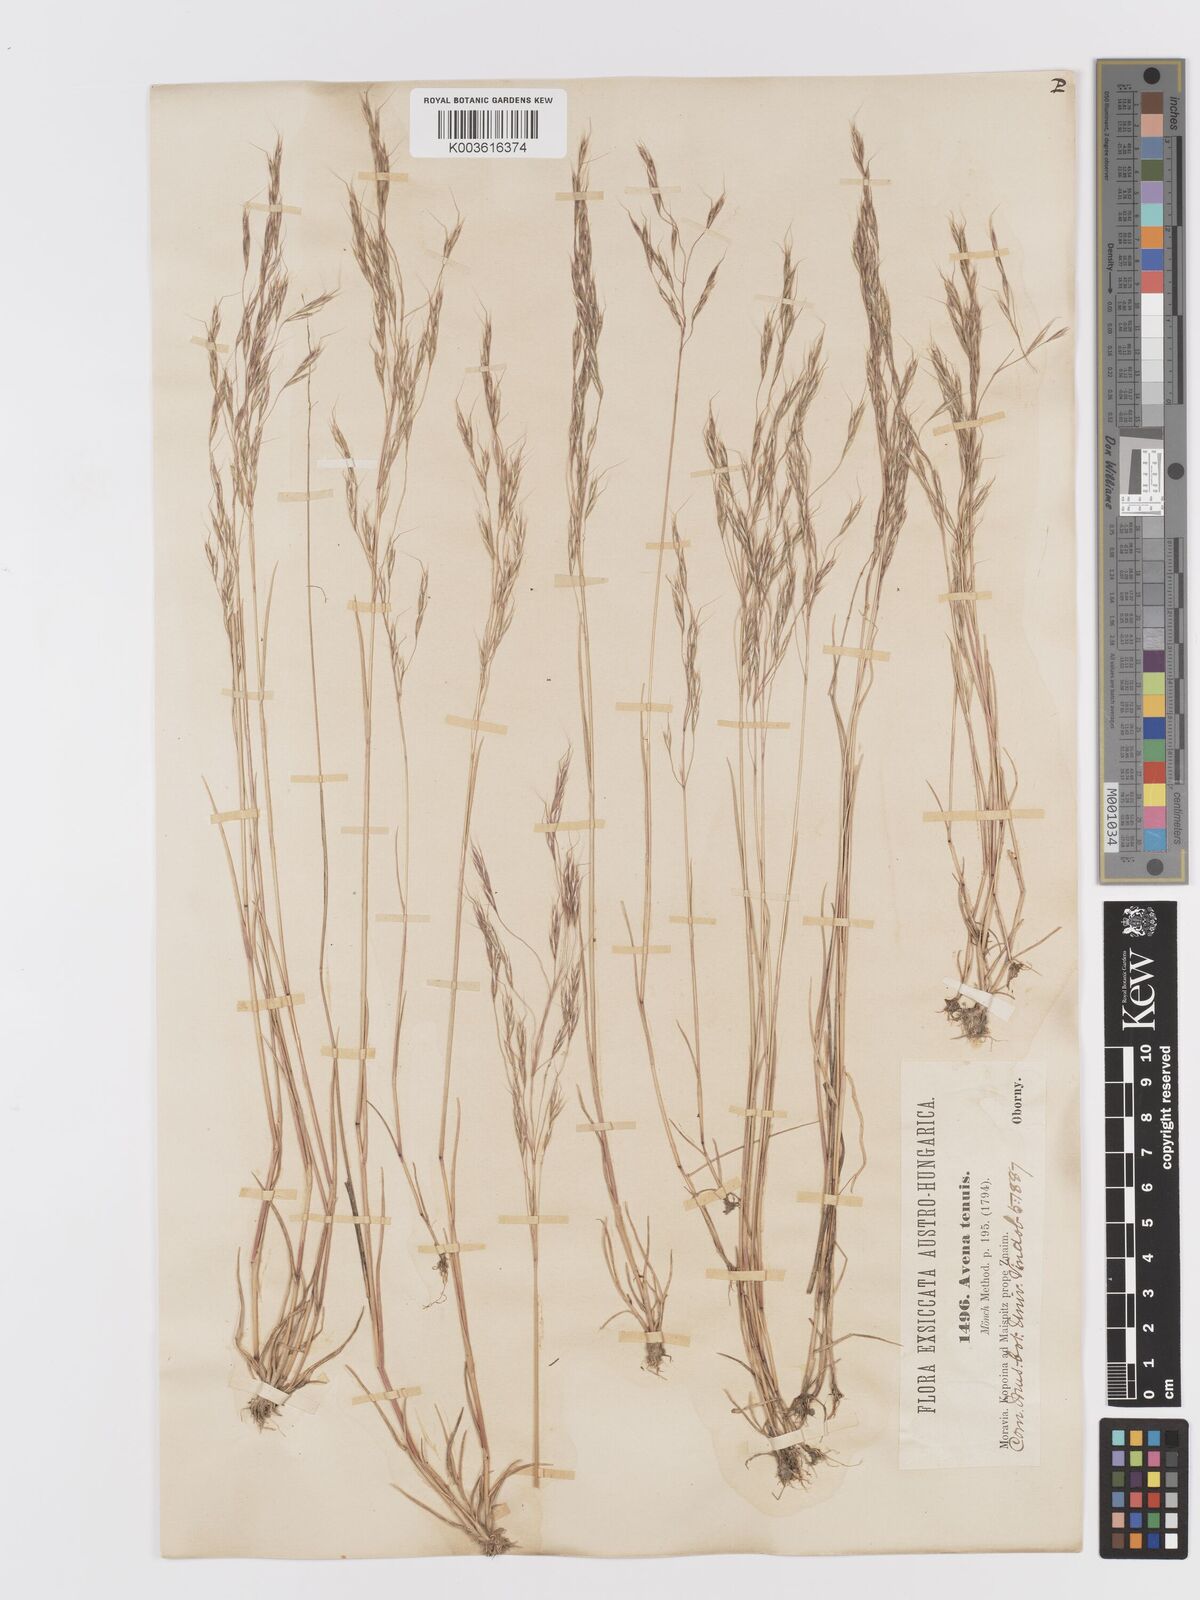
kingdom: Plantae
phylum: Tracheophyta
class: Liliopsida
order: Poales
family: Poaceae
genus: Ventenata
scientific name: Ventenata dubia
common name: North africa grass
